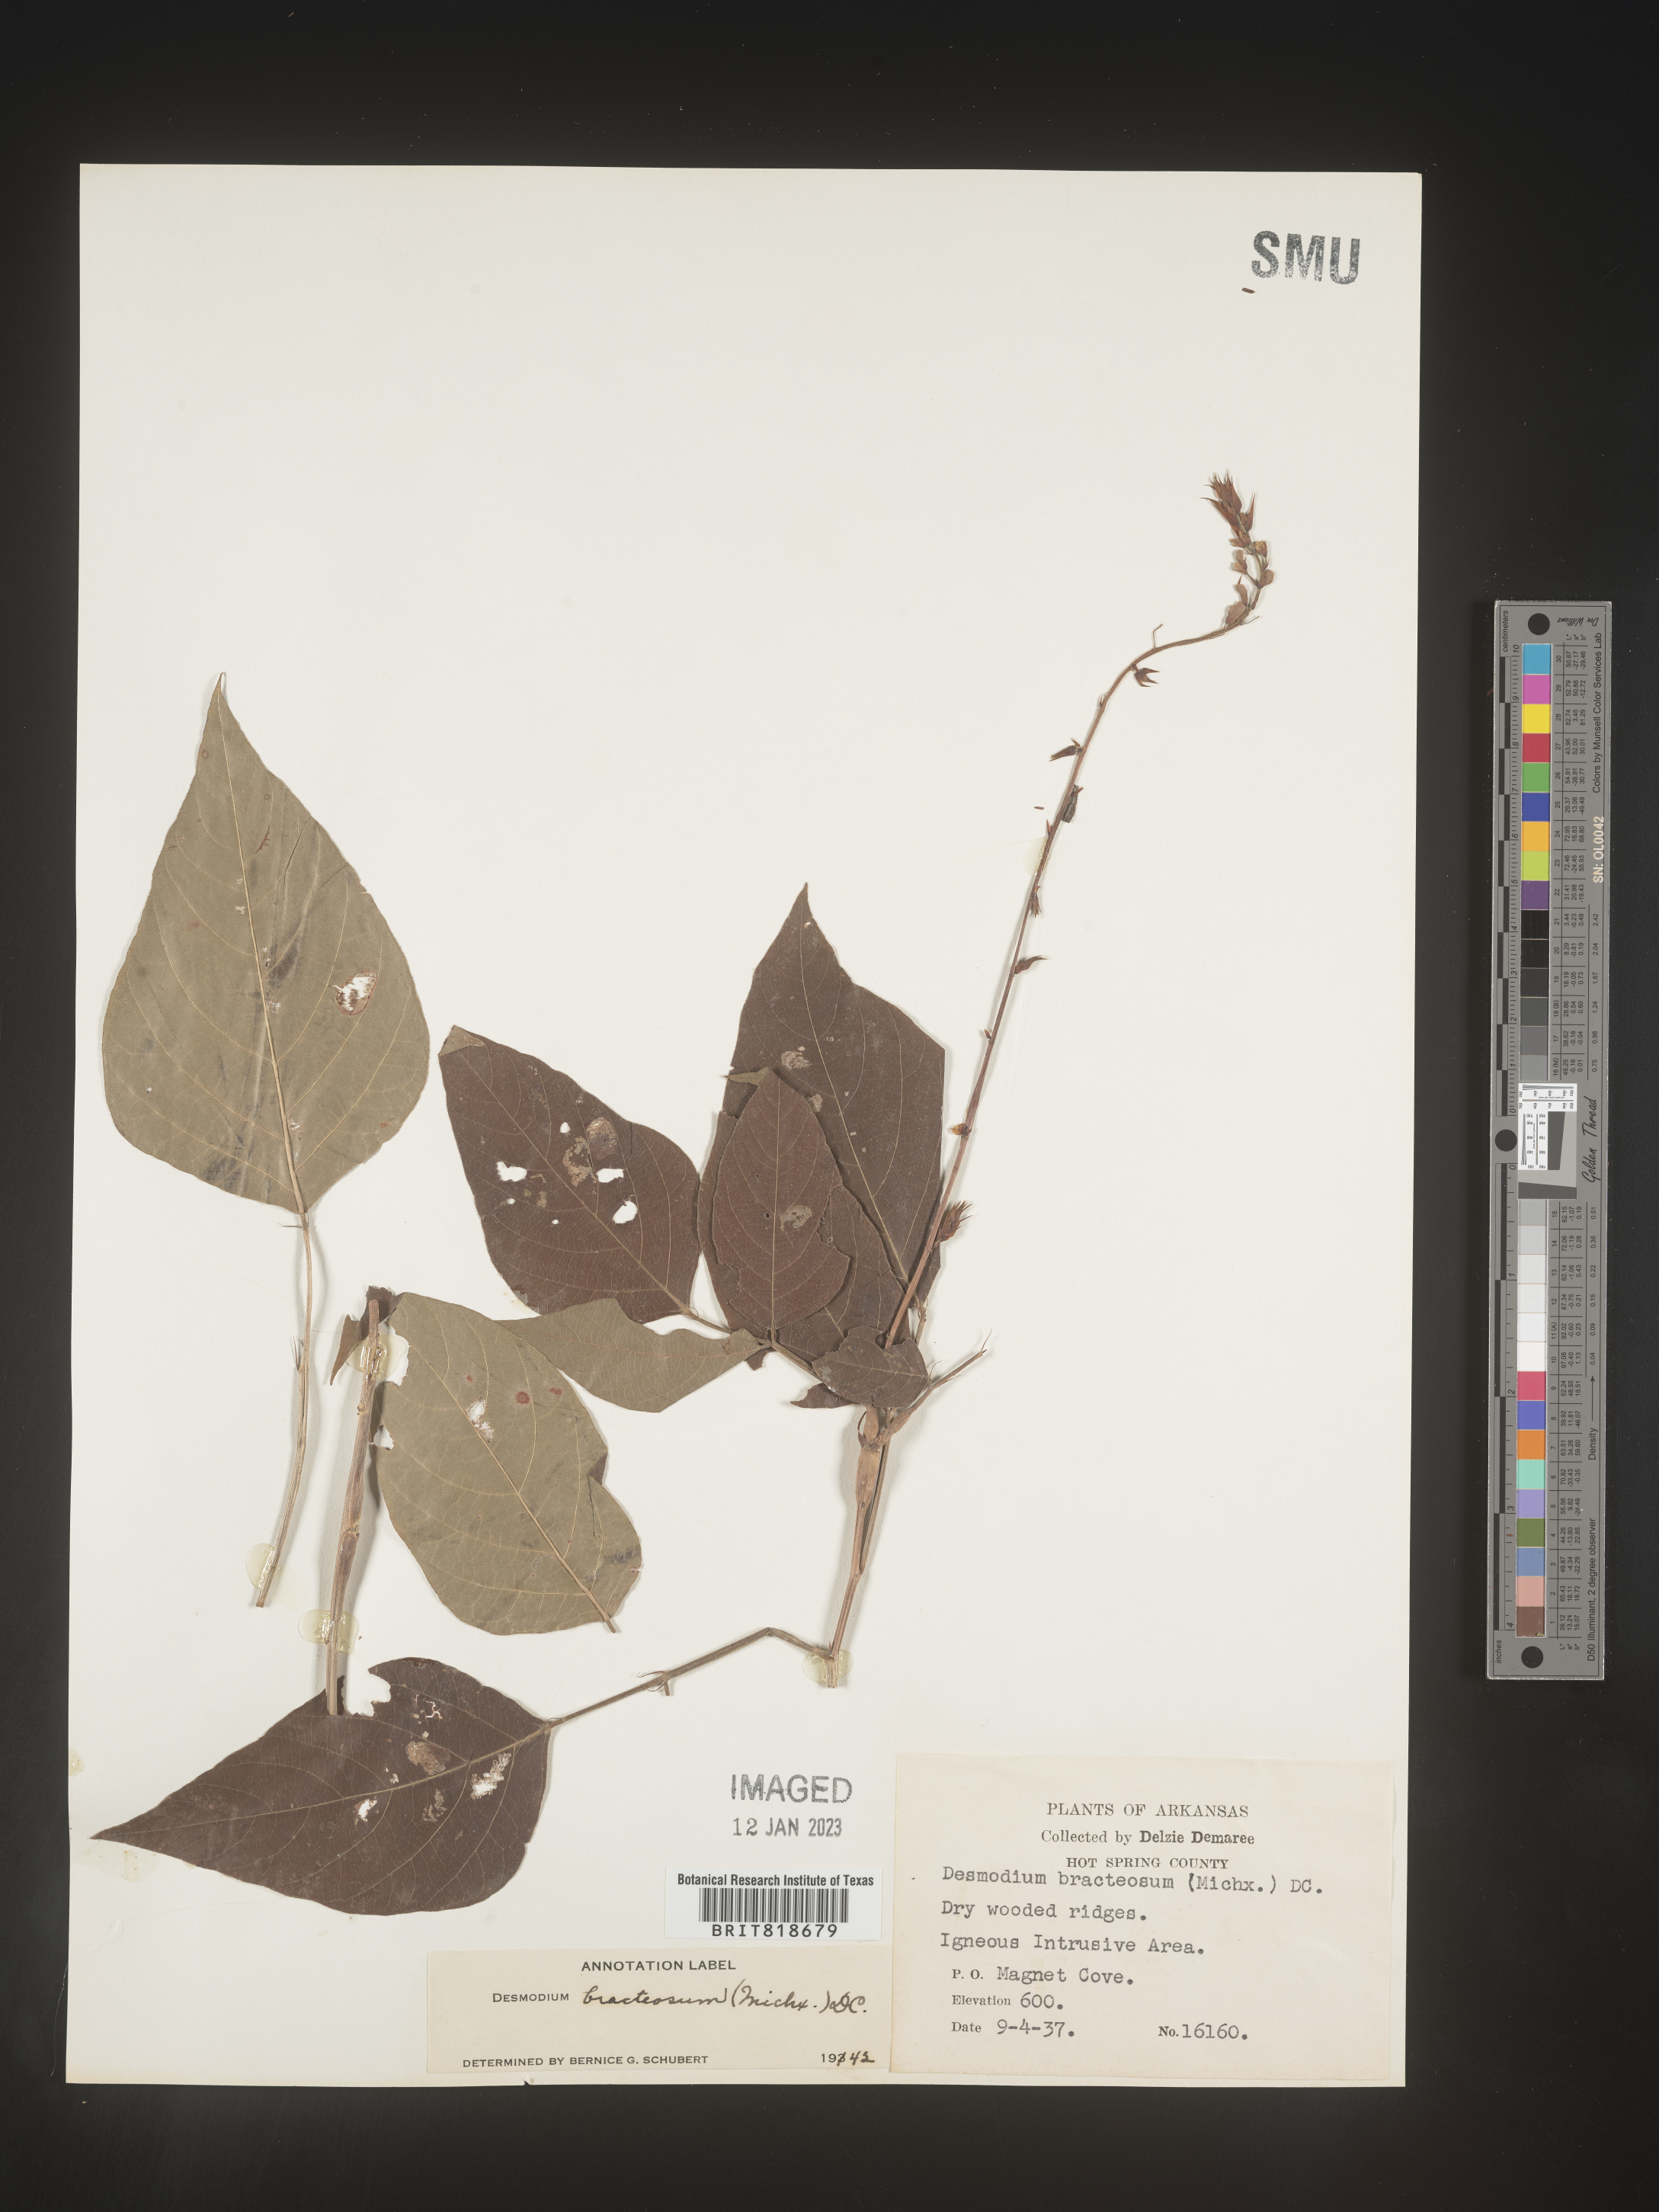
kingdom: Plantae
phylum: Tracheophyta
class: Magnoliopsida
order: Fabales
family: Fabaceae
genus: Desmodium
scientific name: Desmodium
